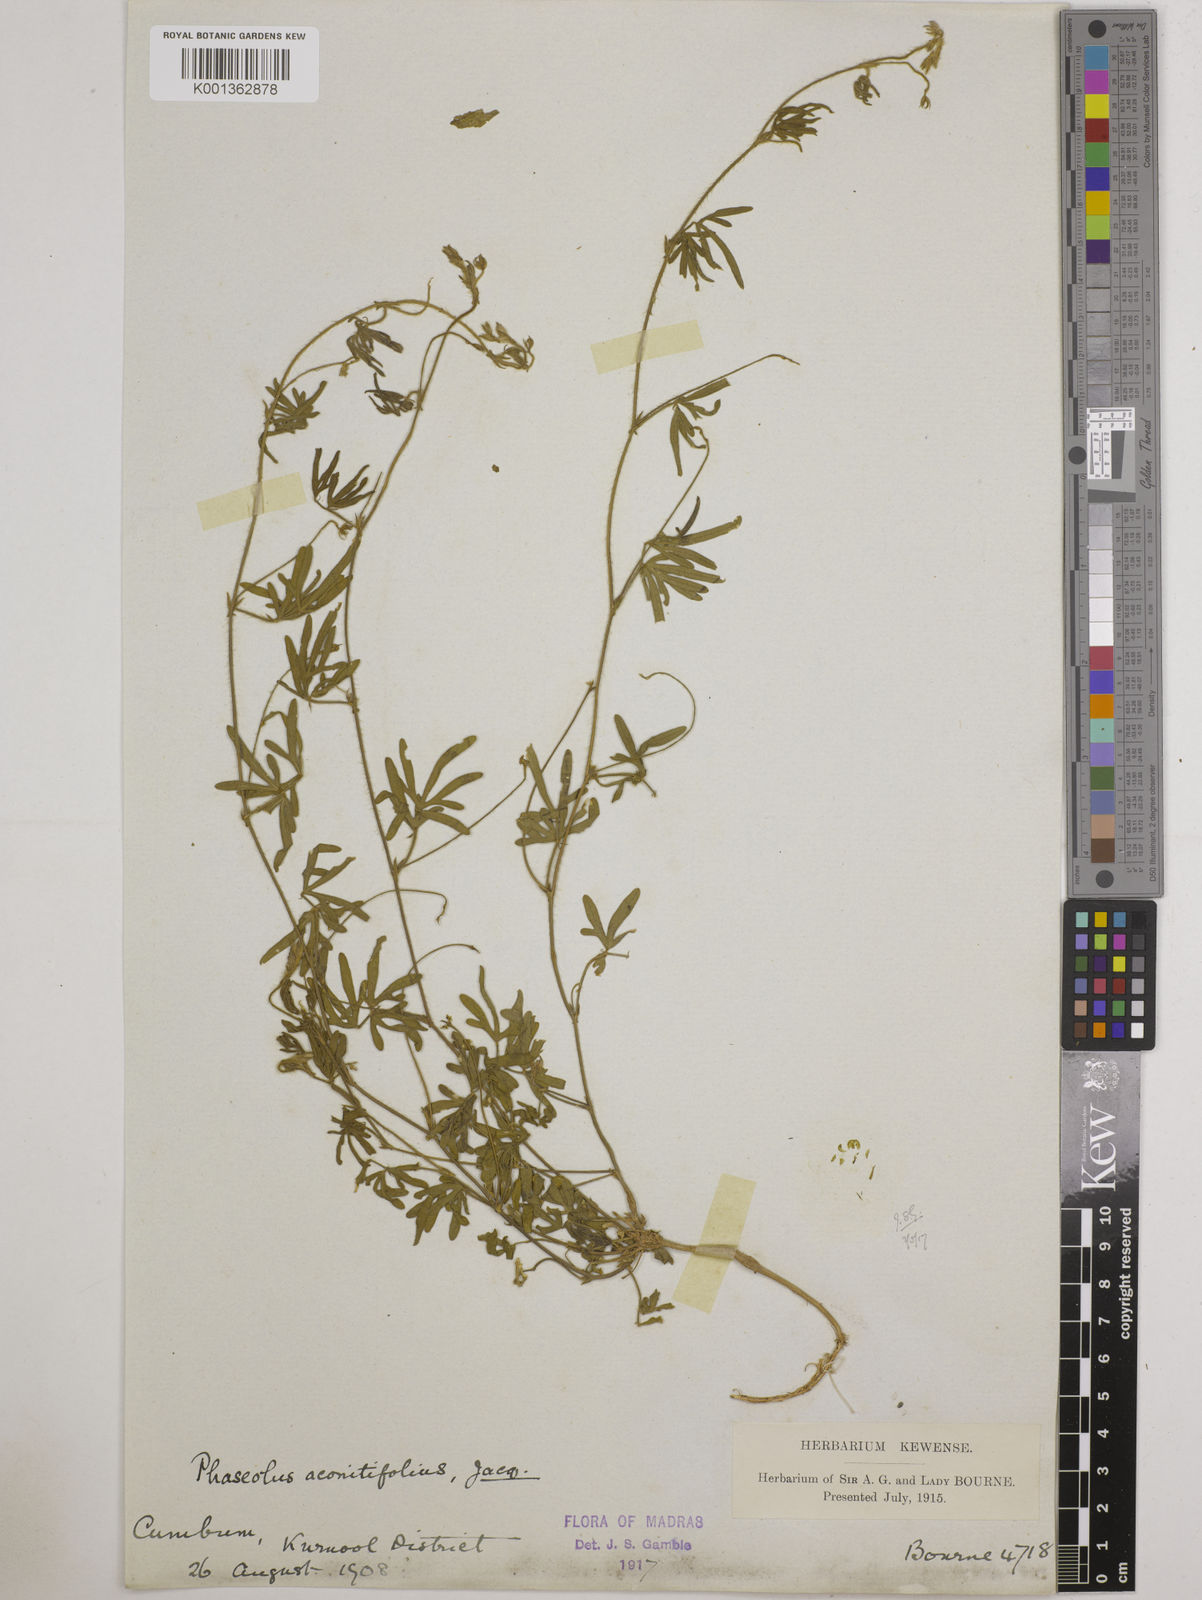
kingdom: Plantae
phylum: Tracheophyta
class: Magnoliopsida
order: Fabales
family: Fabaceae
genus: Vigna
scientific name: Vigna aconitifolia
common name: Dew bean
